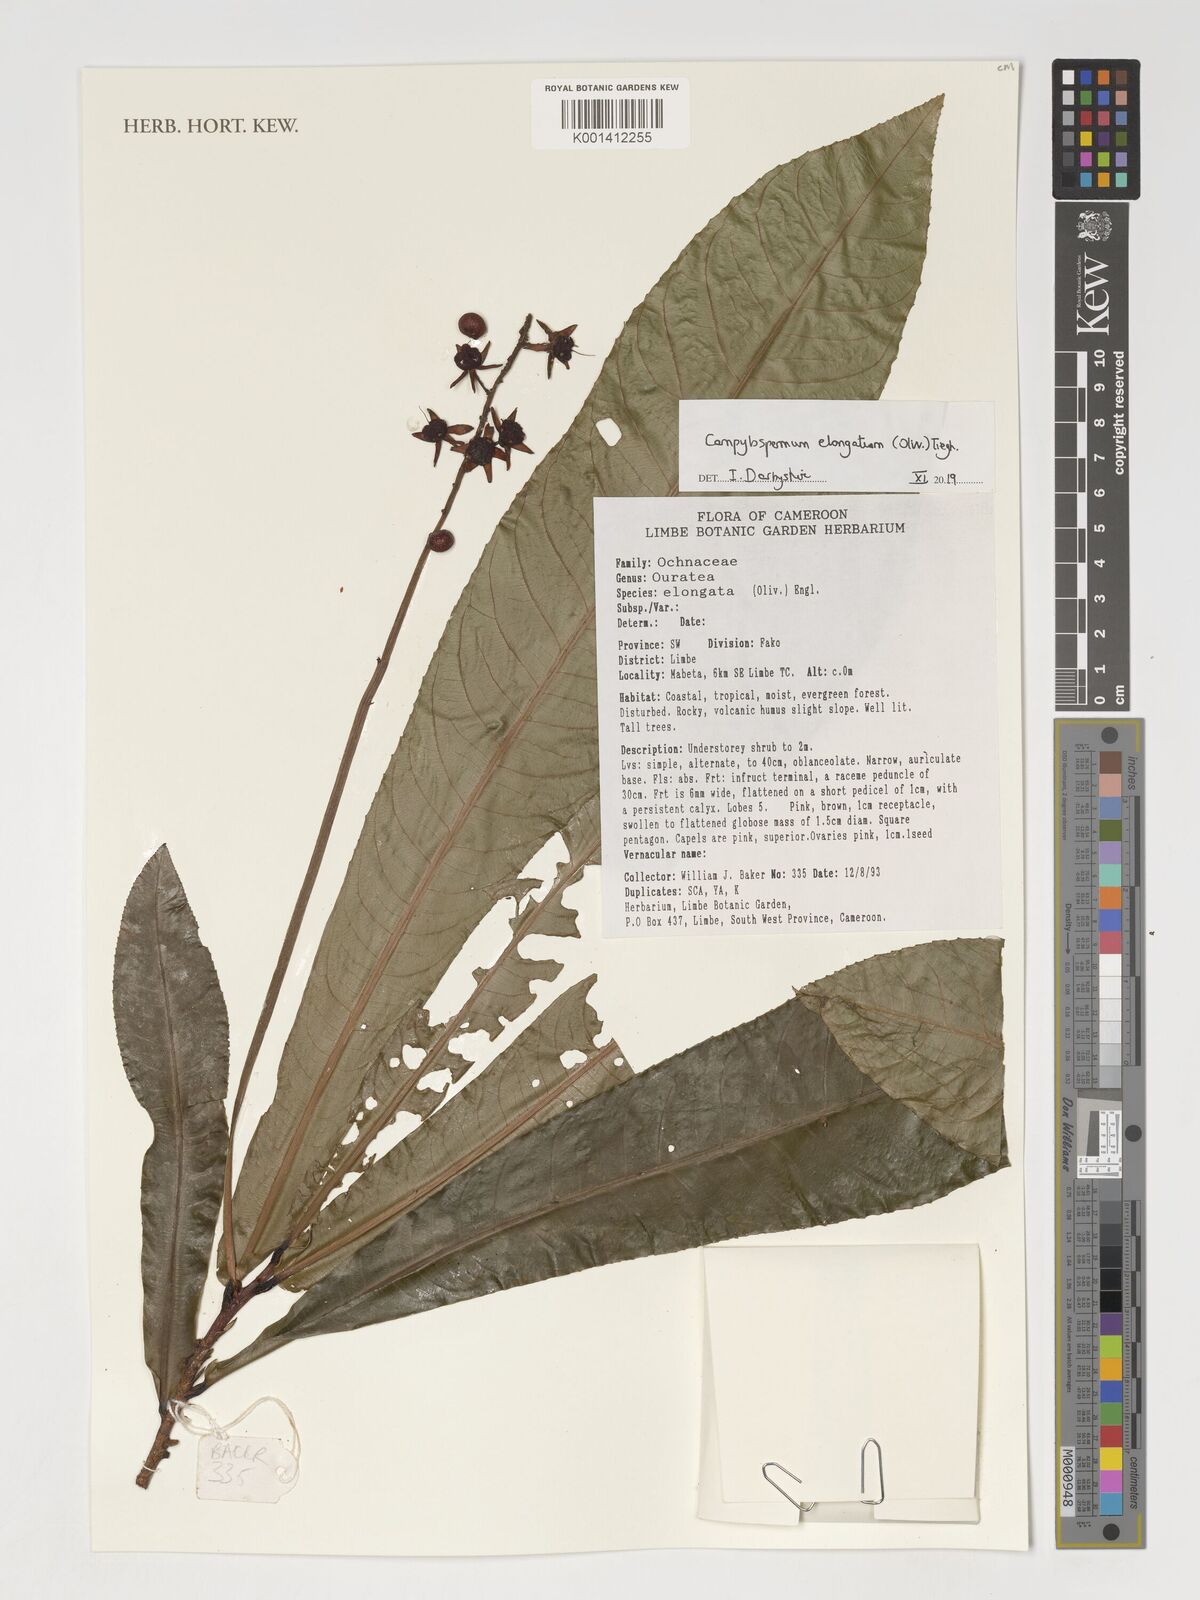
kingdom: Plantae
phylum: Tracheophyta
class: Magnoliopsida
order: Malpighiales
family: Ochnaceae
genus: Gomphia
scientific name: Gomphia elongata
